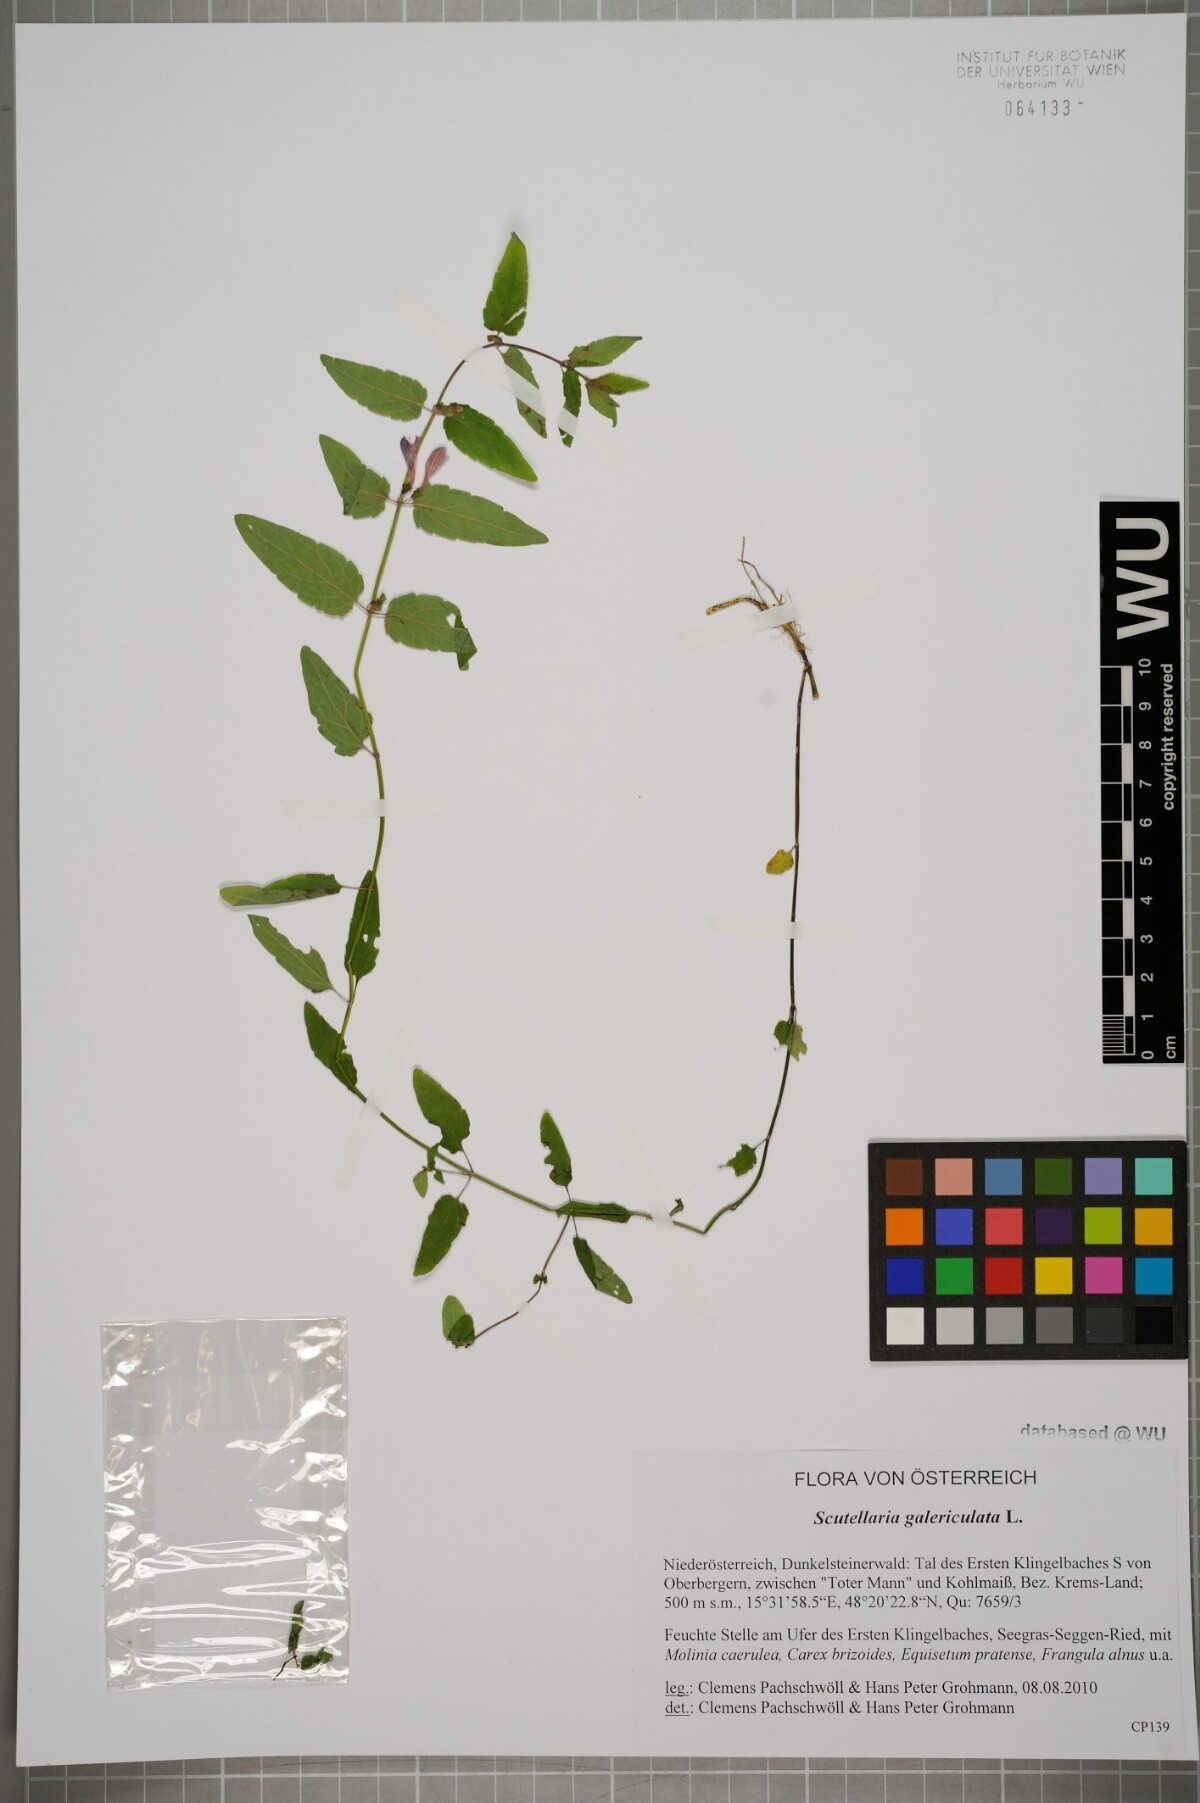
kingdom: Plantae
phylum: Tracheophyta
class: Magnoliopsida
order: Lamiales
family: Lamiaceae
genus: Scutellaria
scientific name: Scutellaria galericulata
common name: Skullcap
